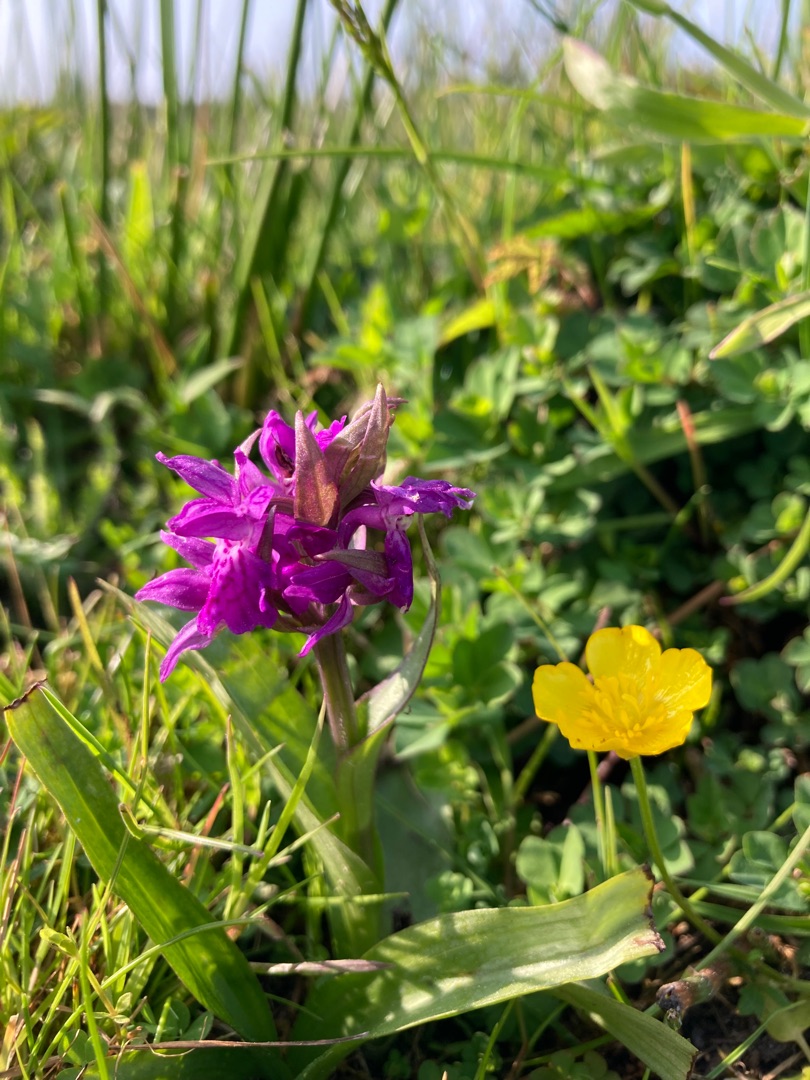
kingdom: Plantae
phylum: Tracheophyta
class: Liliopsida
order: Asparagales
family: Orchidaceae
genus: Dactylorhiza
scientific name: Dactylorhiza majalis
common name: Maj-gøgeurt
